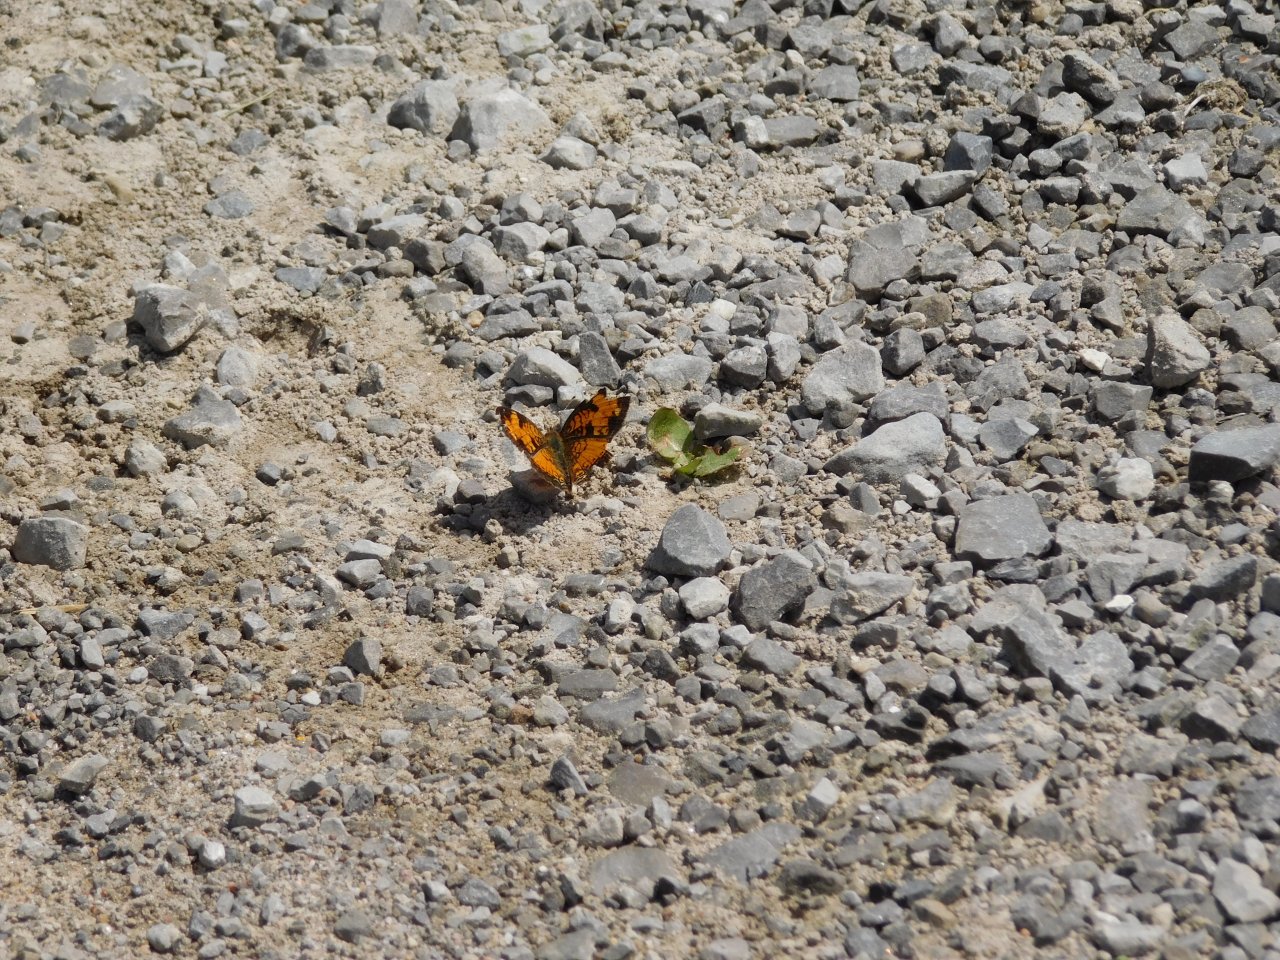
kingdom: Animalia
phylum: Arthropoda
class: Insecta
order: Lepidoptera
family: Nymphalidae
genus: Phyciodes
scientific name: Phyciodes tharos
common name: Pearl Crescent
